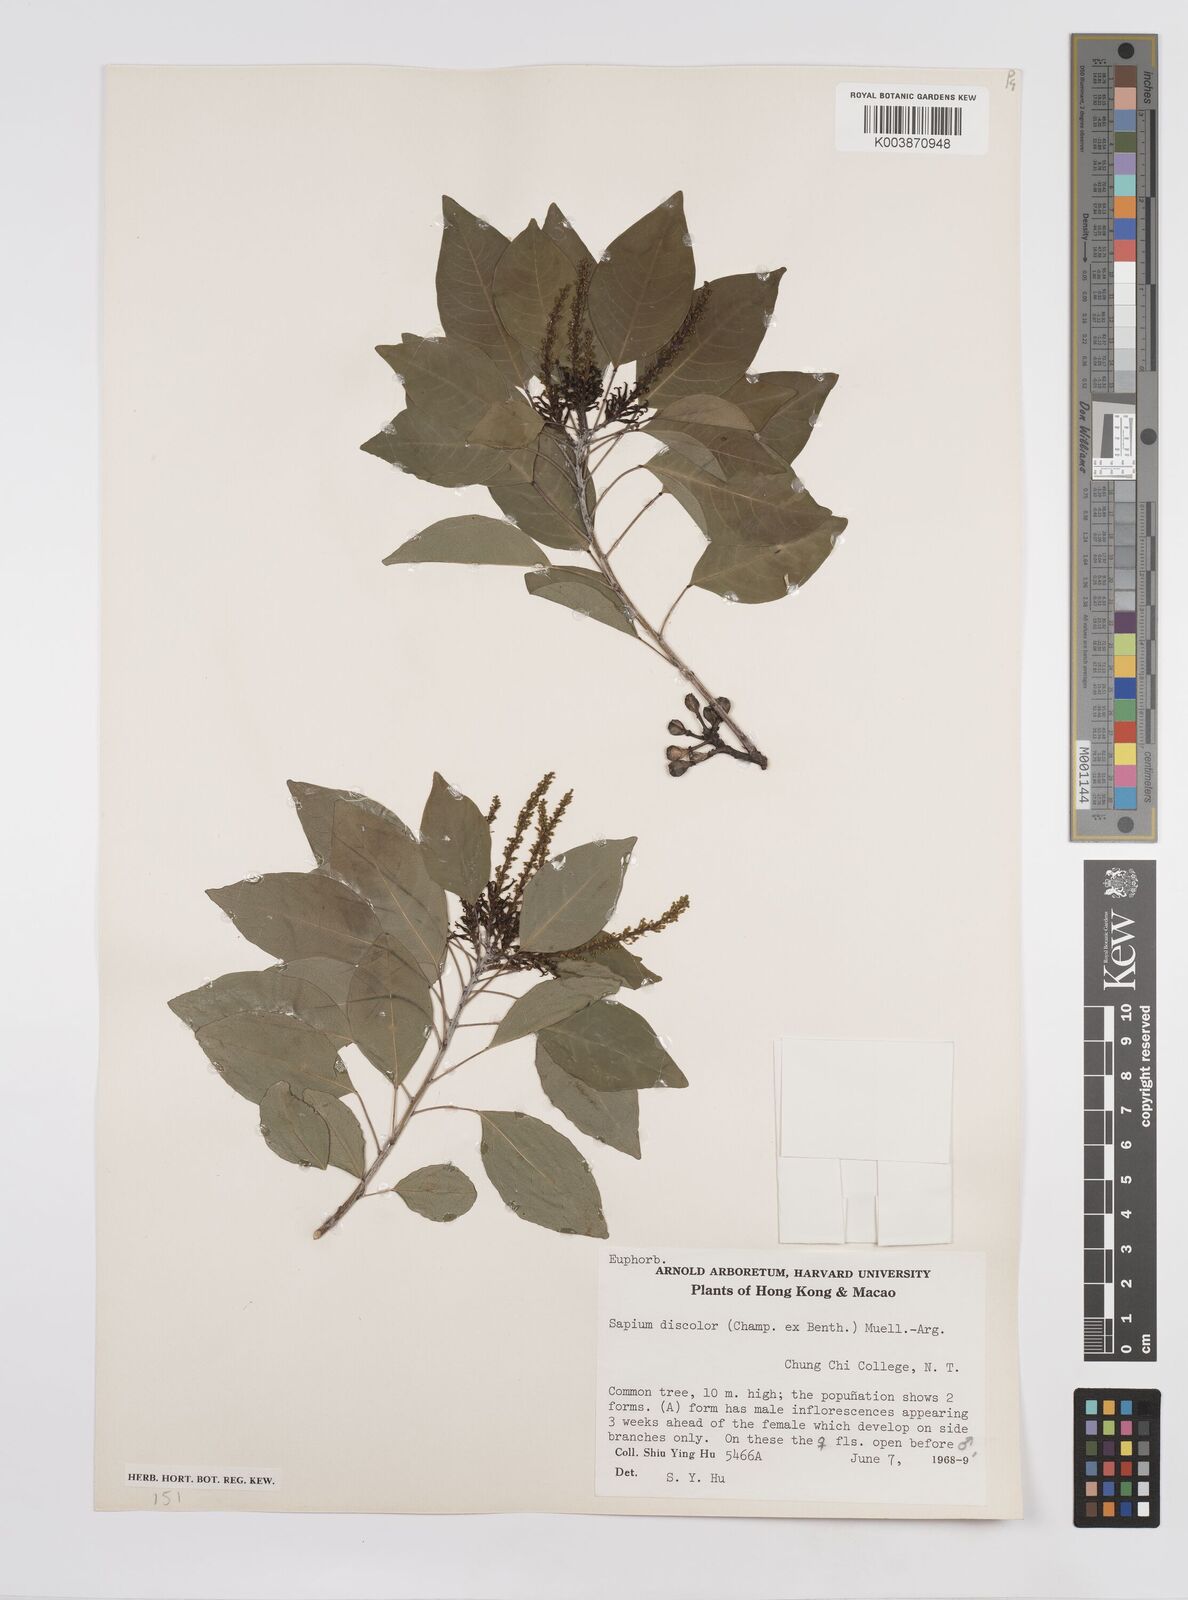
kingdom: Plantae
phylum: Tracheophyta
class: Magnoliopsida
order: Malpighiales
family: Euphorbiaceae
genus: Triadica
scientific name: Triadica cochinchinensis
